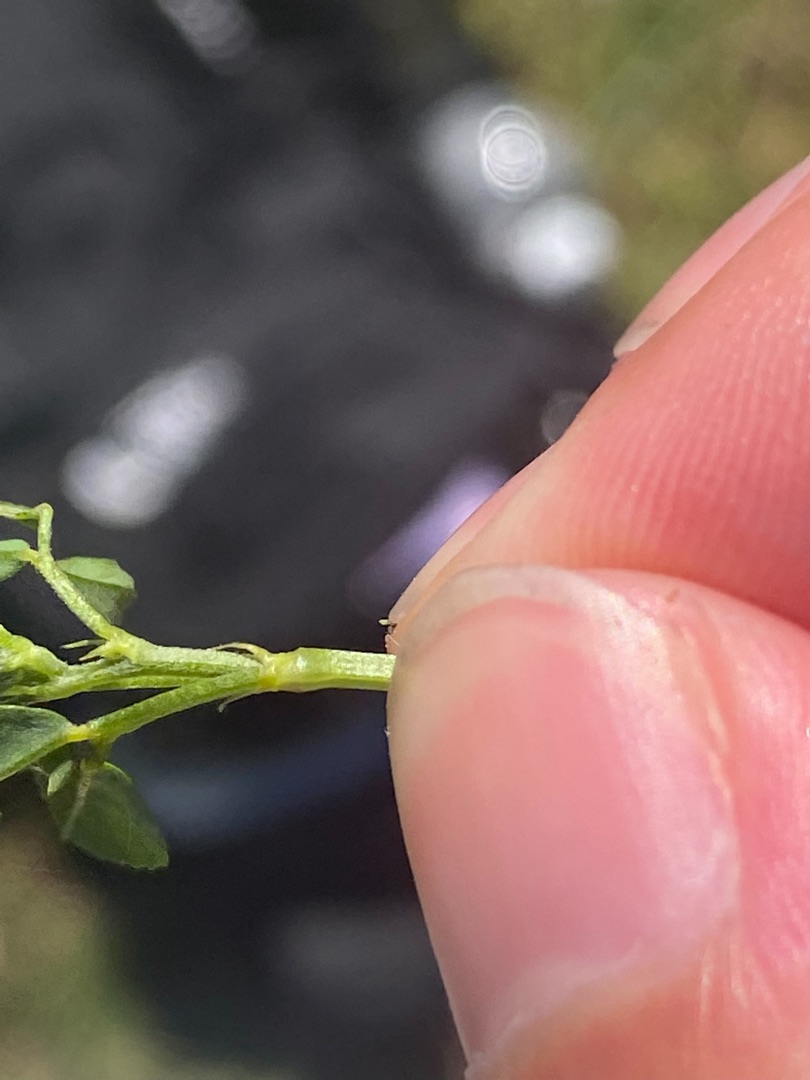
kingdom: Plantae
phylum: Tracheophyta
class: Magnoliopsida
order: Fabales
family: Fabaceae
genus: Melilotus
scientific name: Melilotus
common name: Stenkløverslægten
